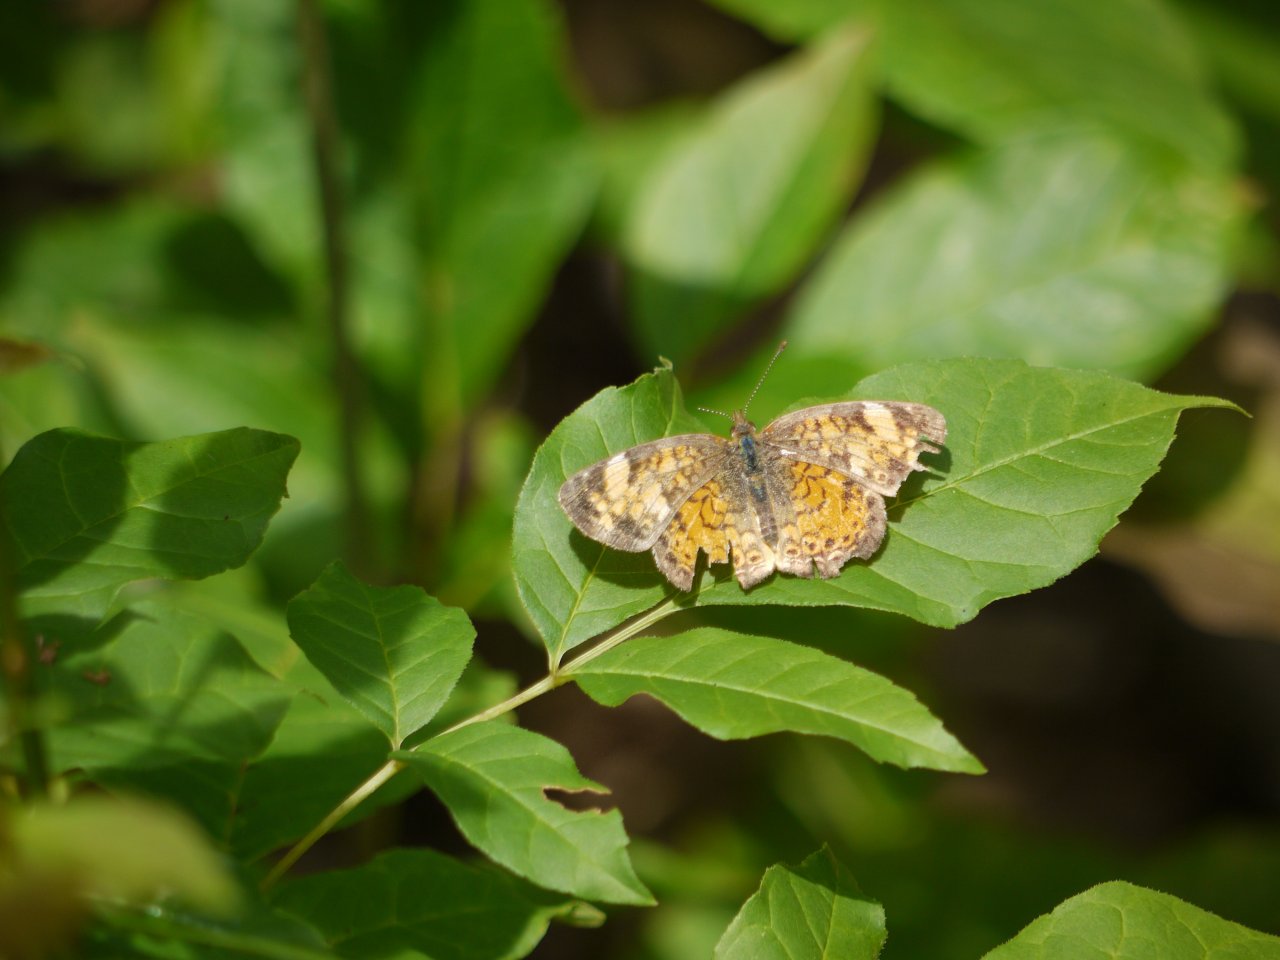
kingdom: Animalia
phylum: Arthropoda
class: Insecta
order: Lepidoptera
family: Nymphalidae
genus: Phyciodes
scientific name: Phyciodes
